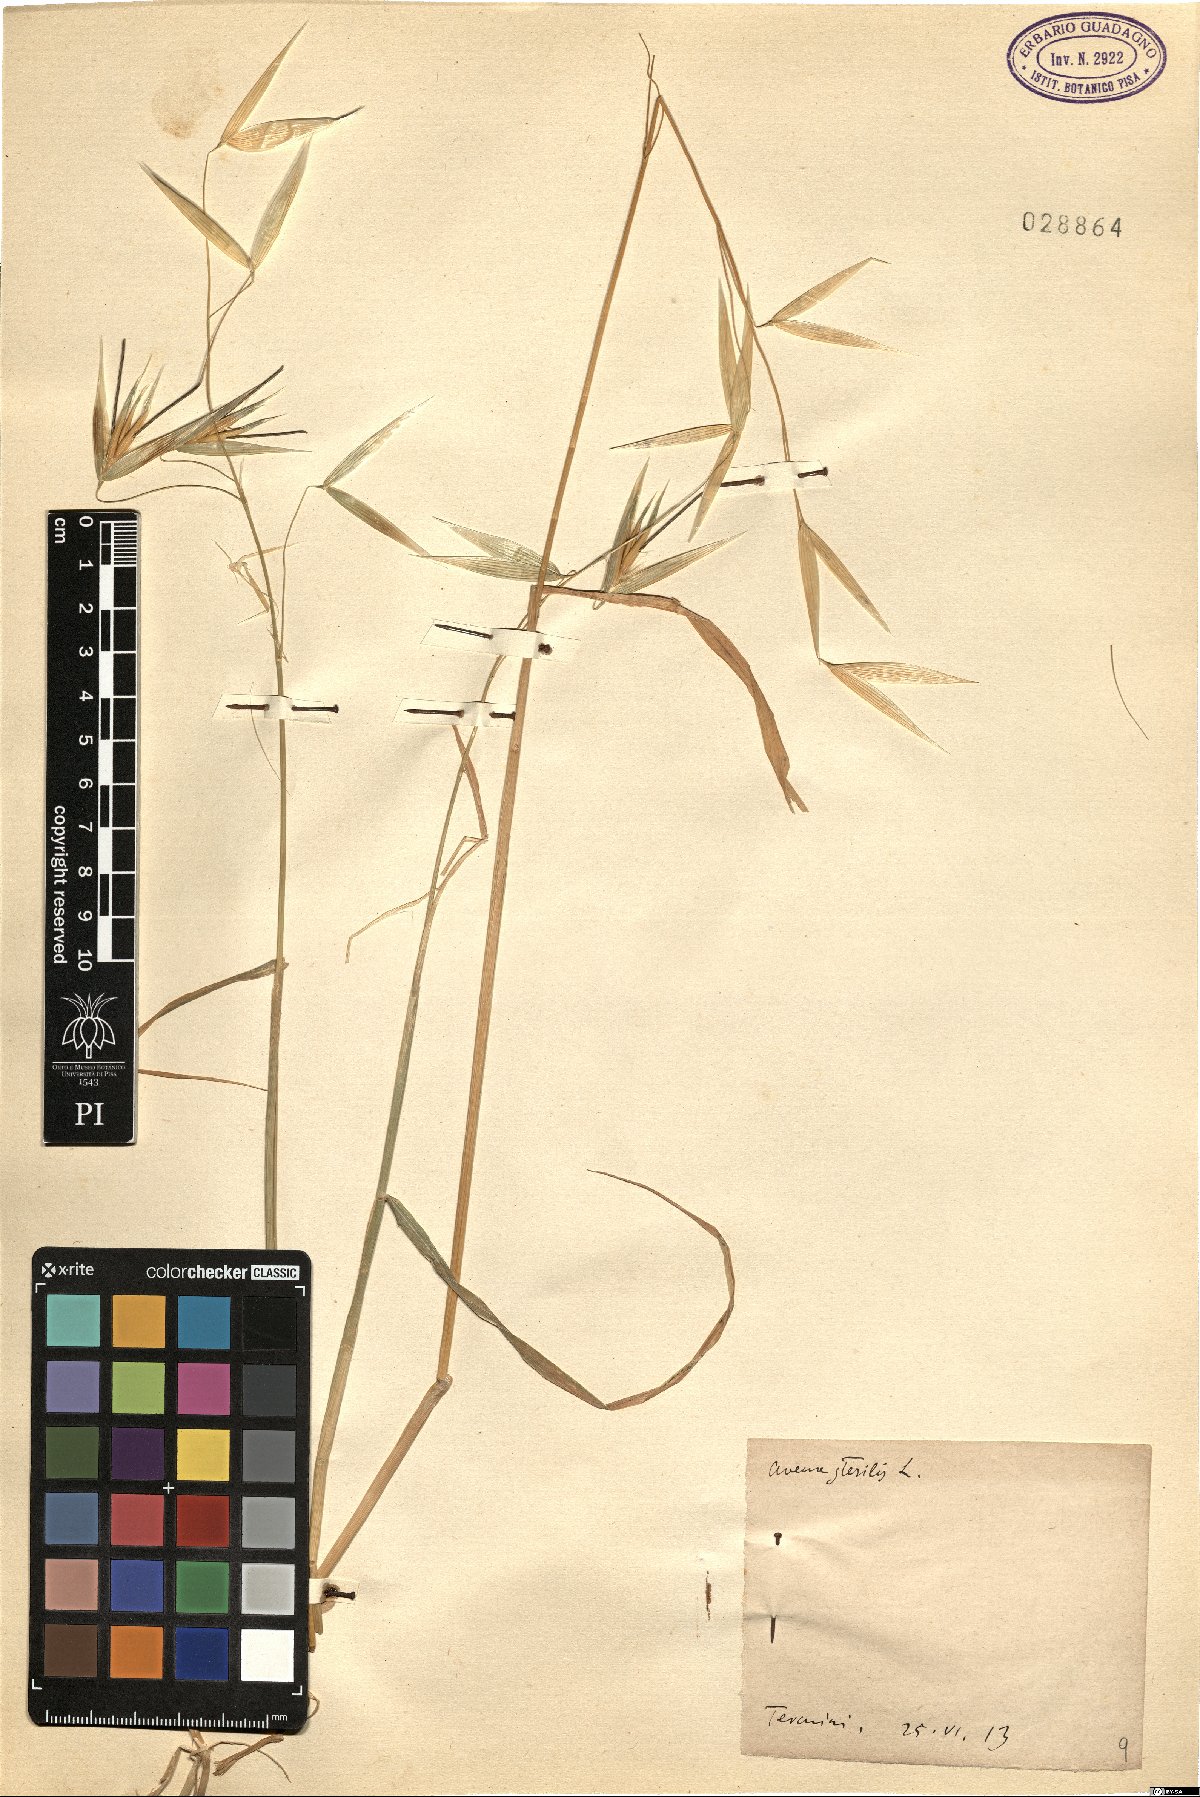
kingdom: Plantae
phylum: Tracheophyta
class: Liliopsida
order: Poales
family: Poaceae
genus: Avena
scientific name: Avena sterilis
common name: Animated oat
